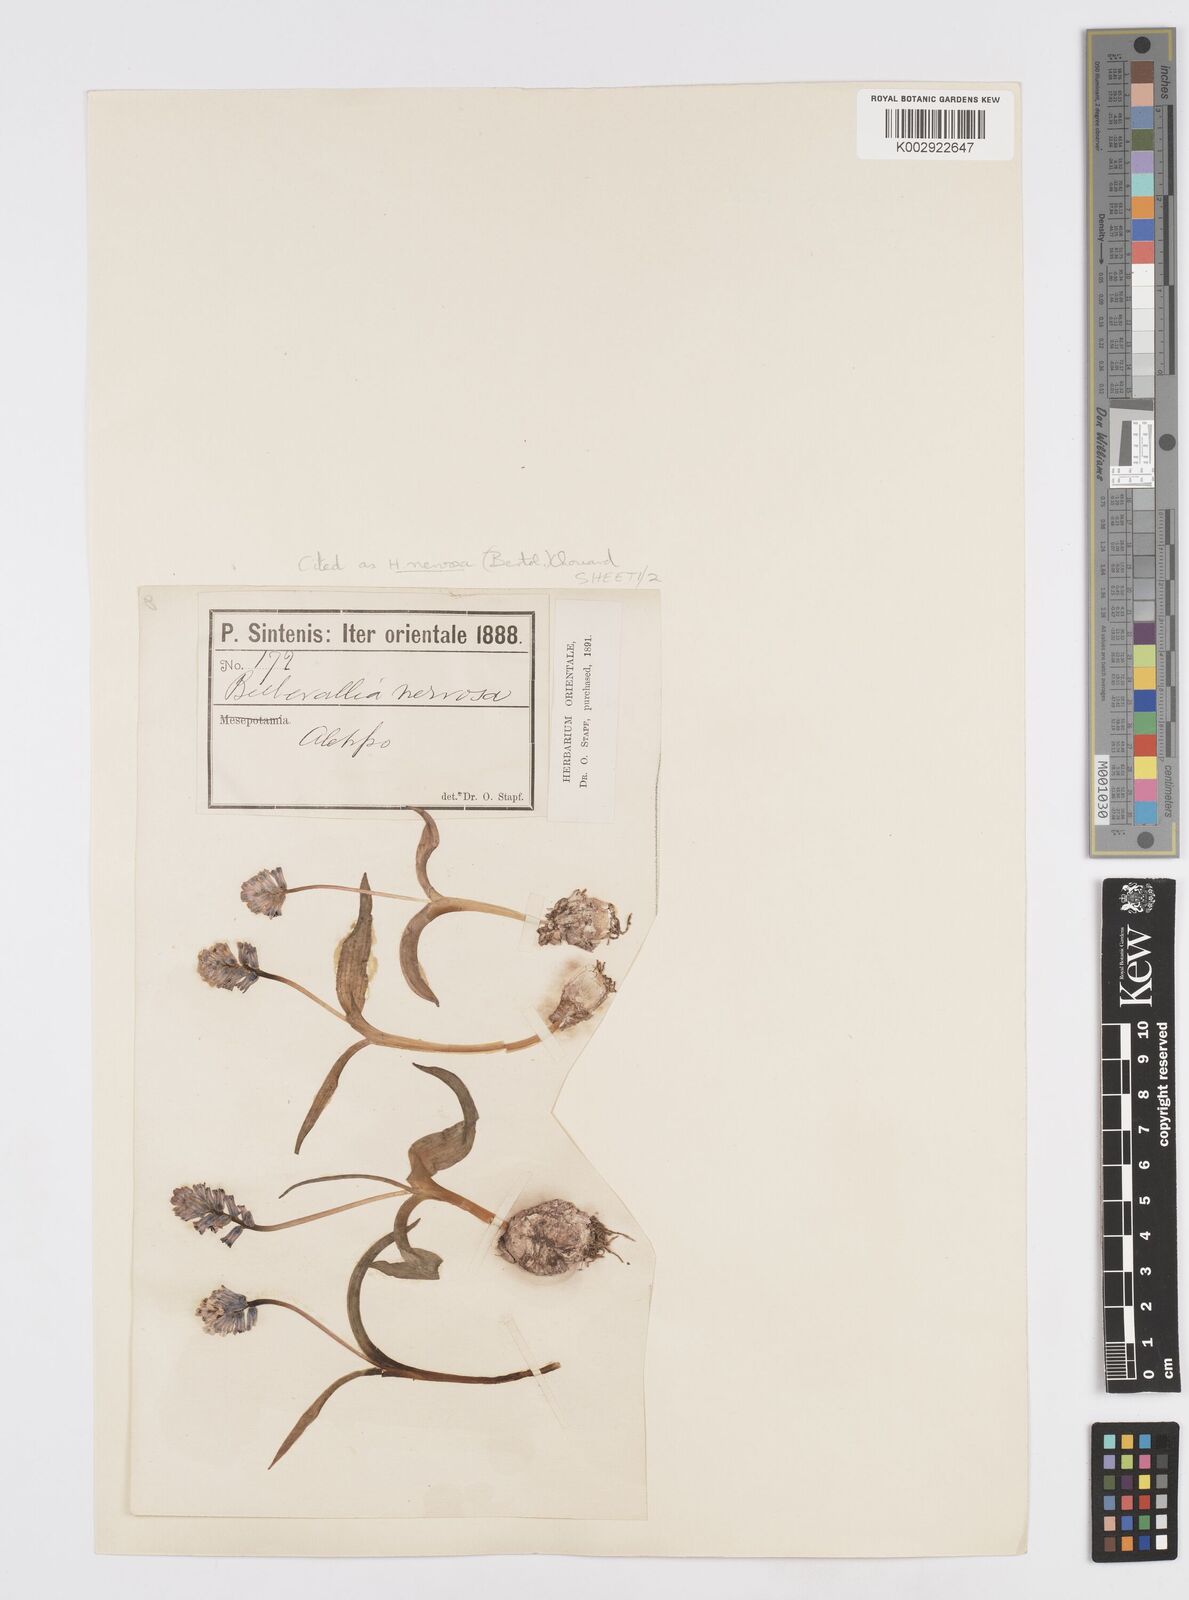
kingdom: Plantae
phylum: Tracheophyta
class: Liliopsida
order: Asparagales
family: Asparagaceae
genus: Hyacinthella
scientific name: Hyacinthella nervosa
